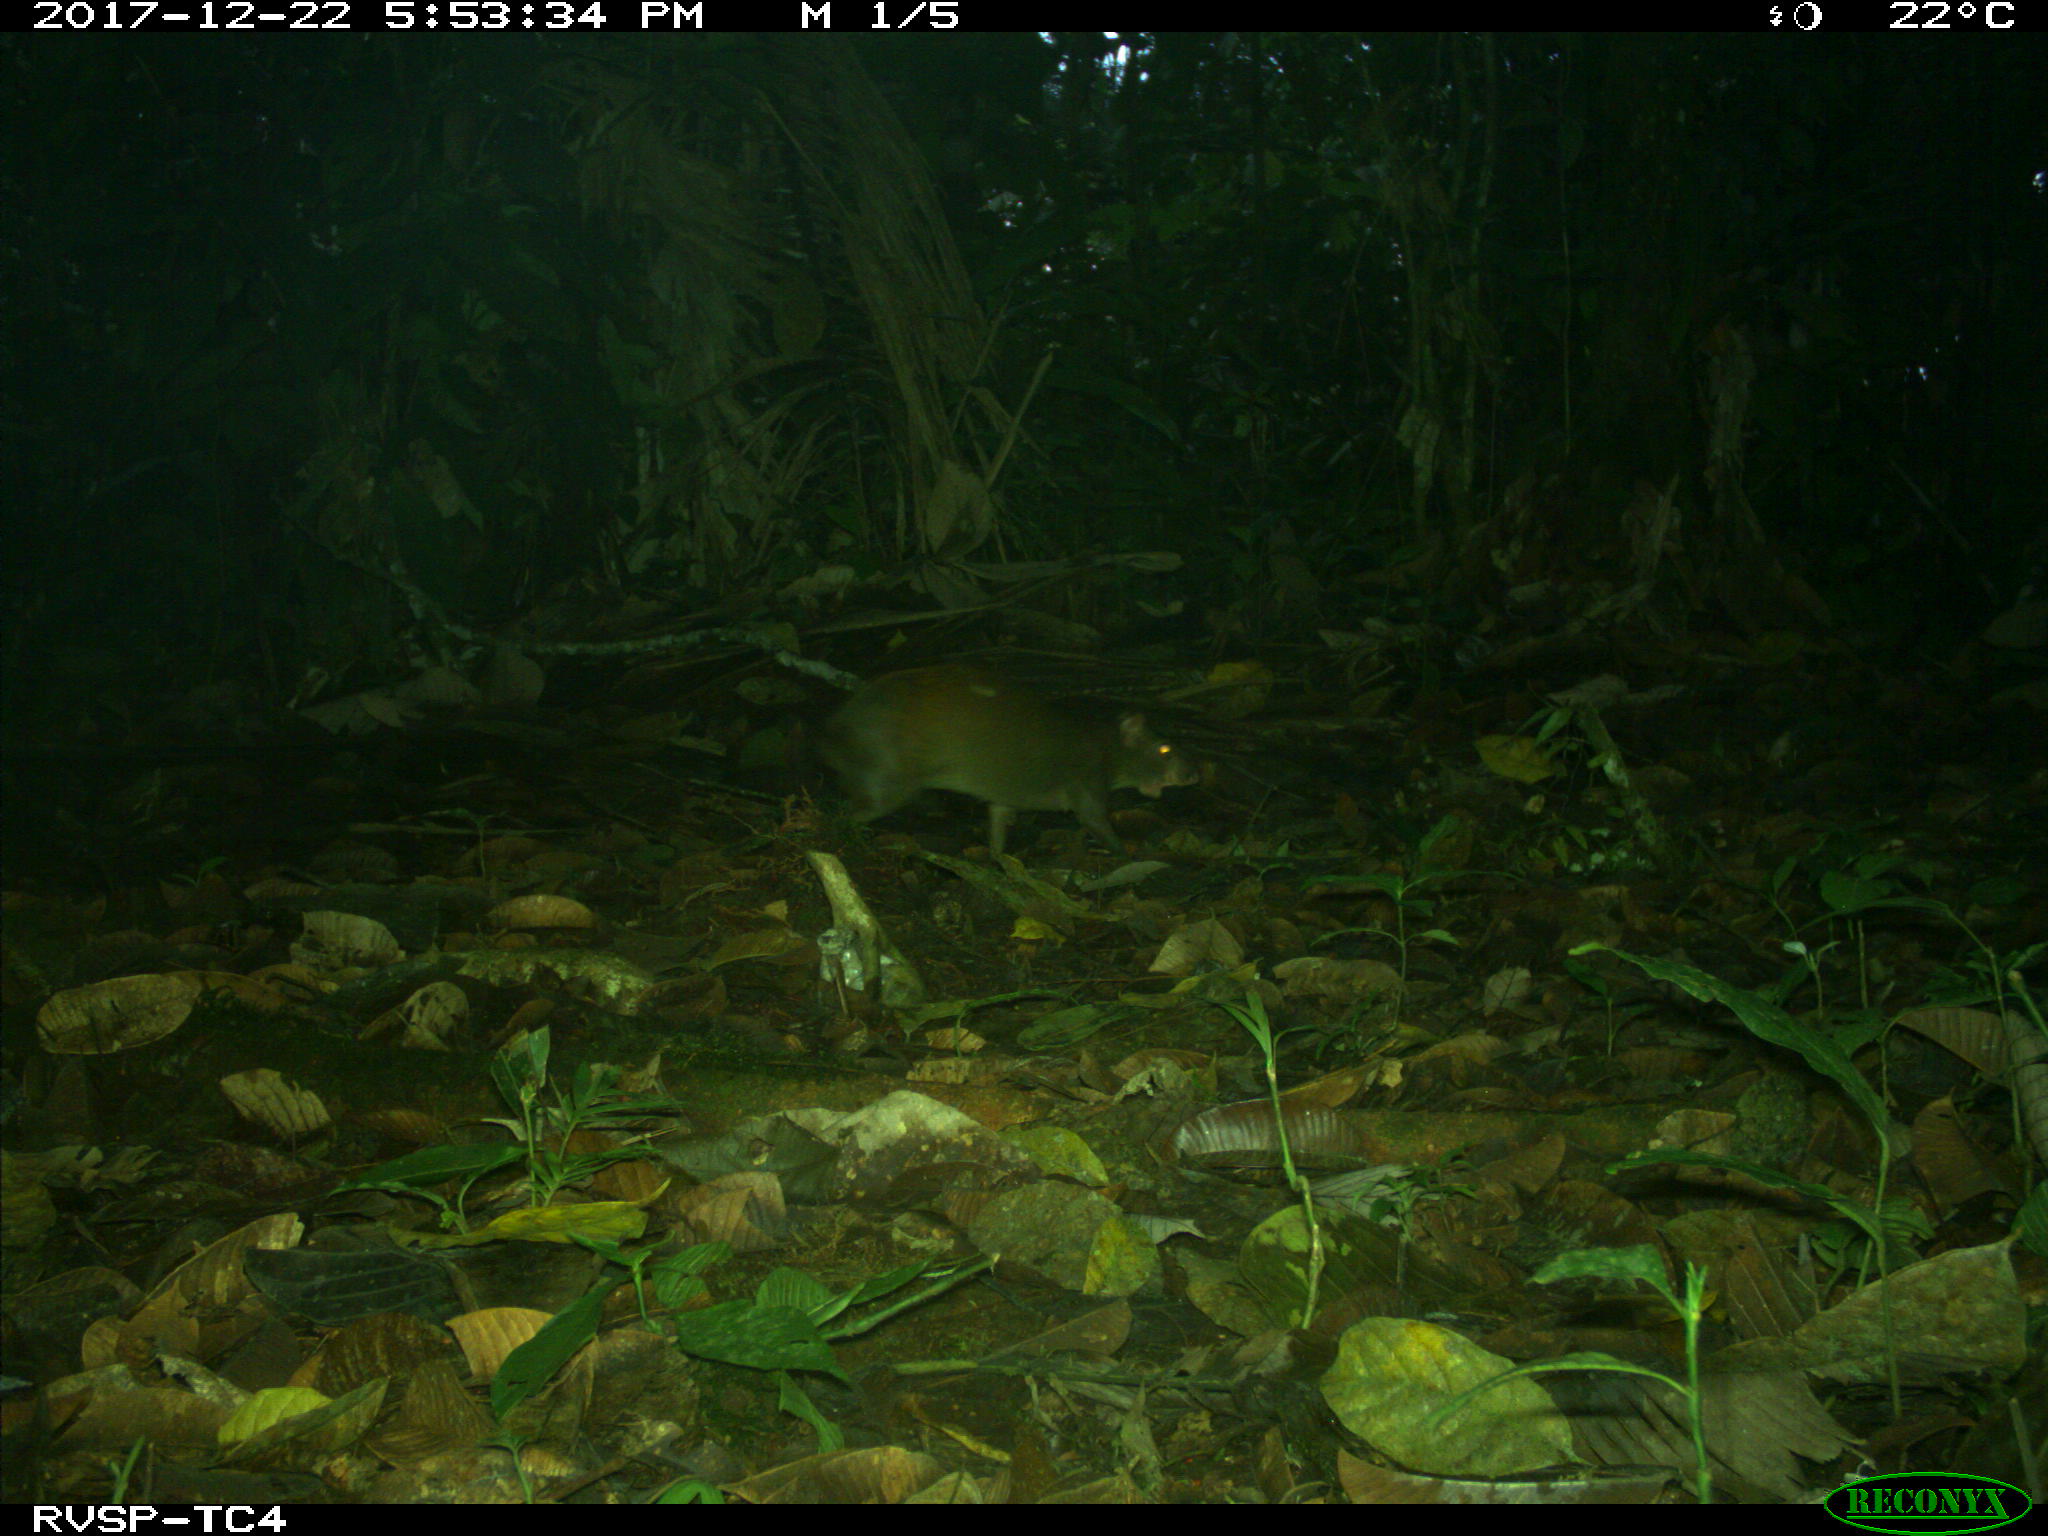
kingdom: Animalia
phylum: Chordata
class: Mammalia
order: Rodentia
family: Dasyproctidae
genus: Dasyprocta
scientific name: Dasyprocta punctata
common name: Central american agouti
